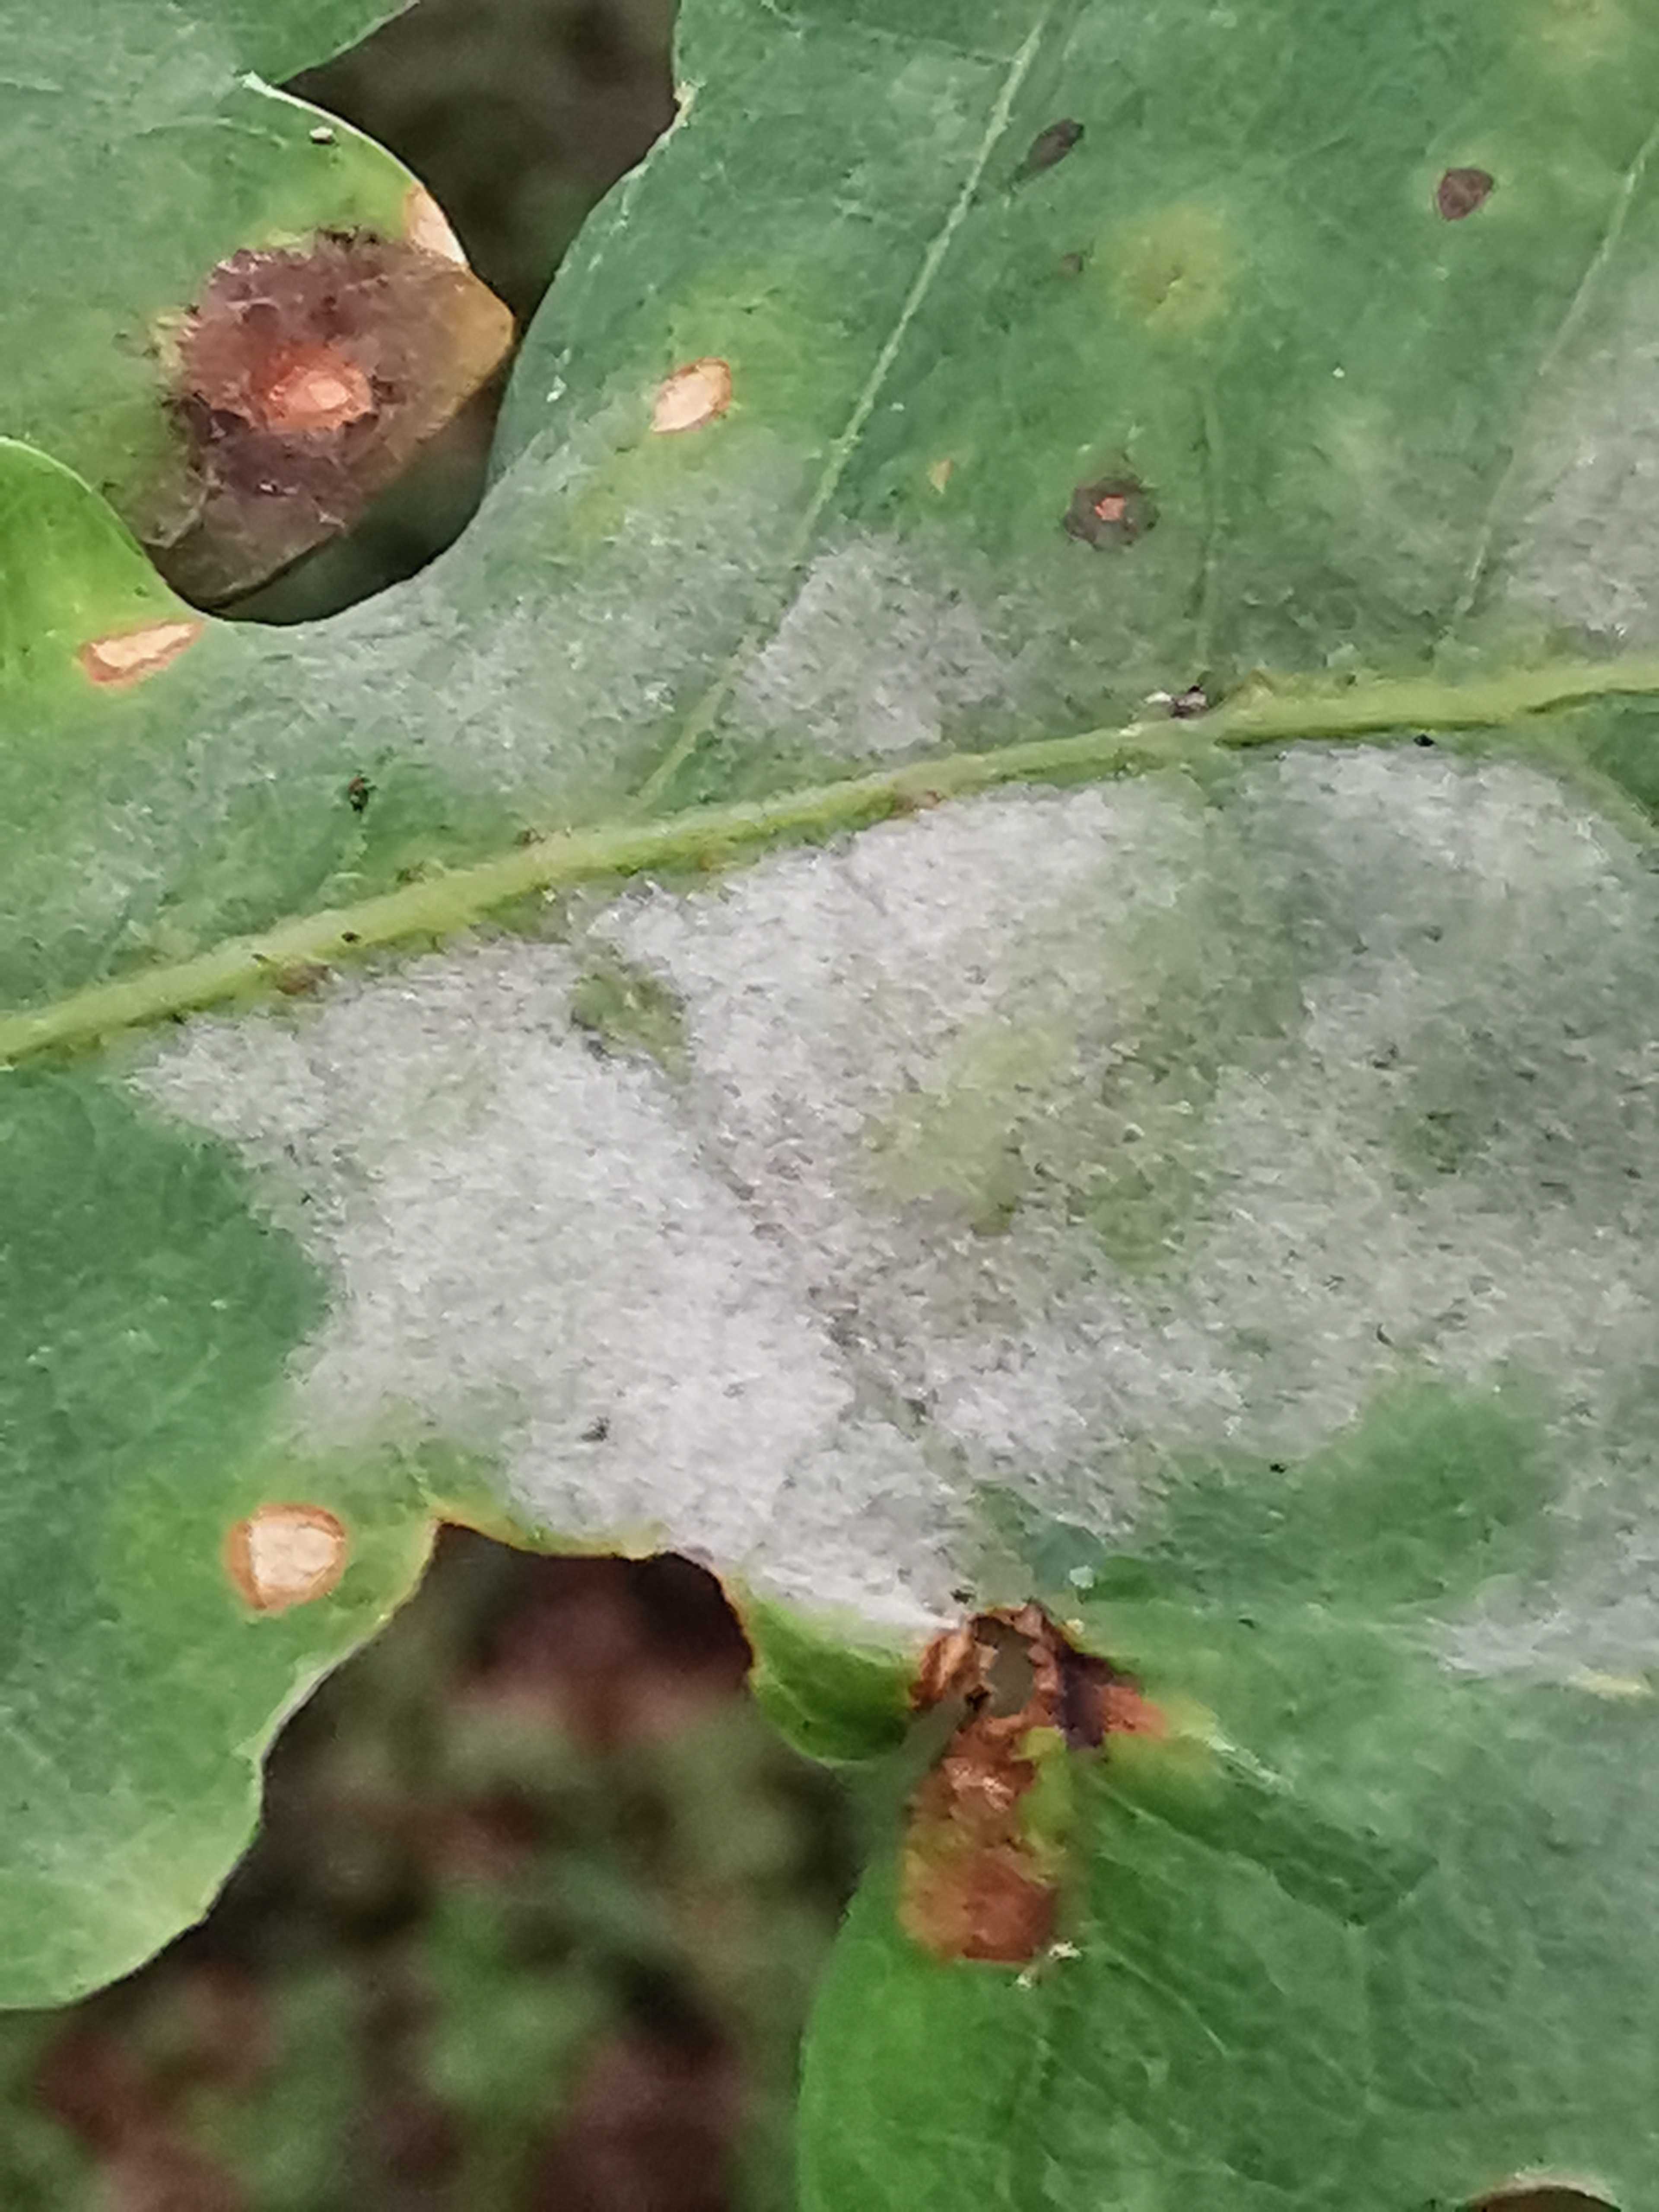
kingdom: Fungi
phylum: Ascomycota
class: Leotiomycetes
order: Helotiales
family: Erysiphaceae
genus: Erysiphe
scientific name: Erysiphe alphitoides
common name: ege-meldug
